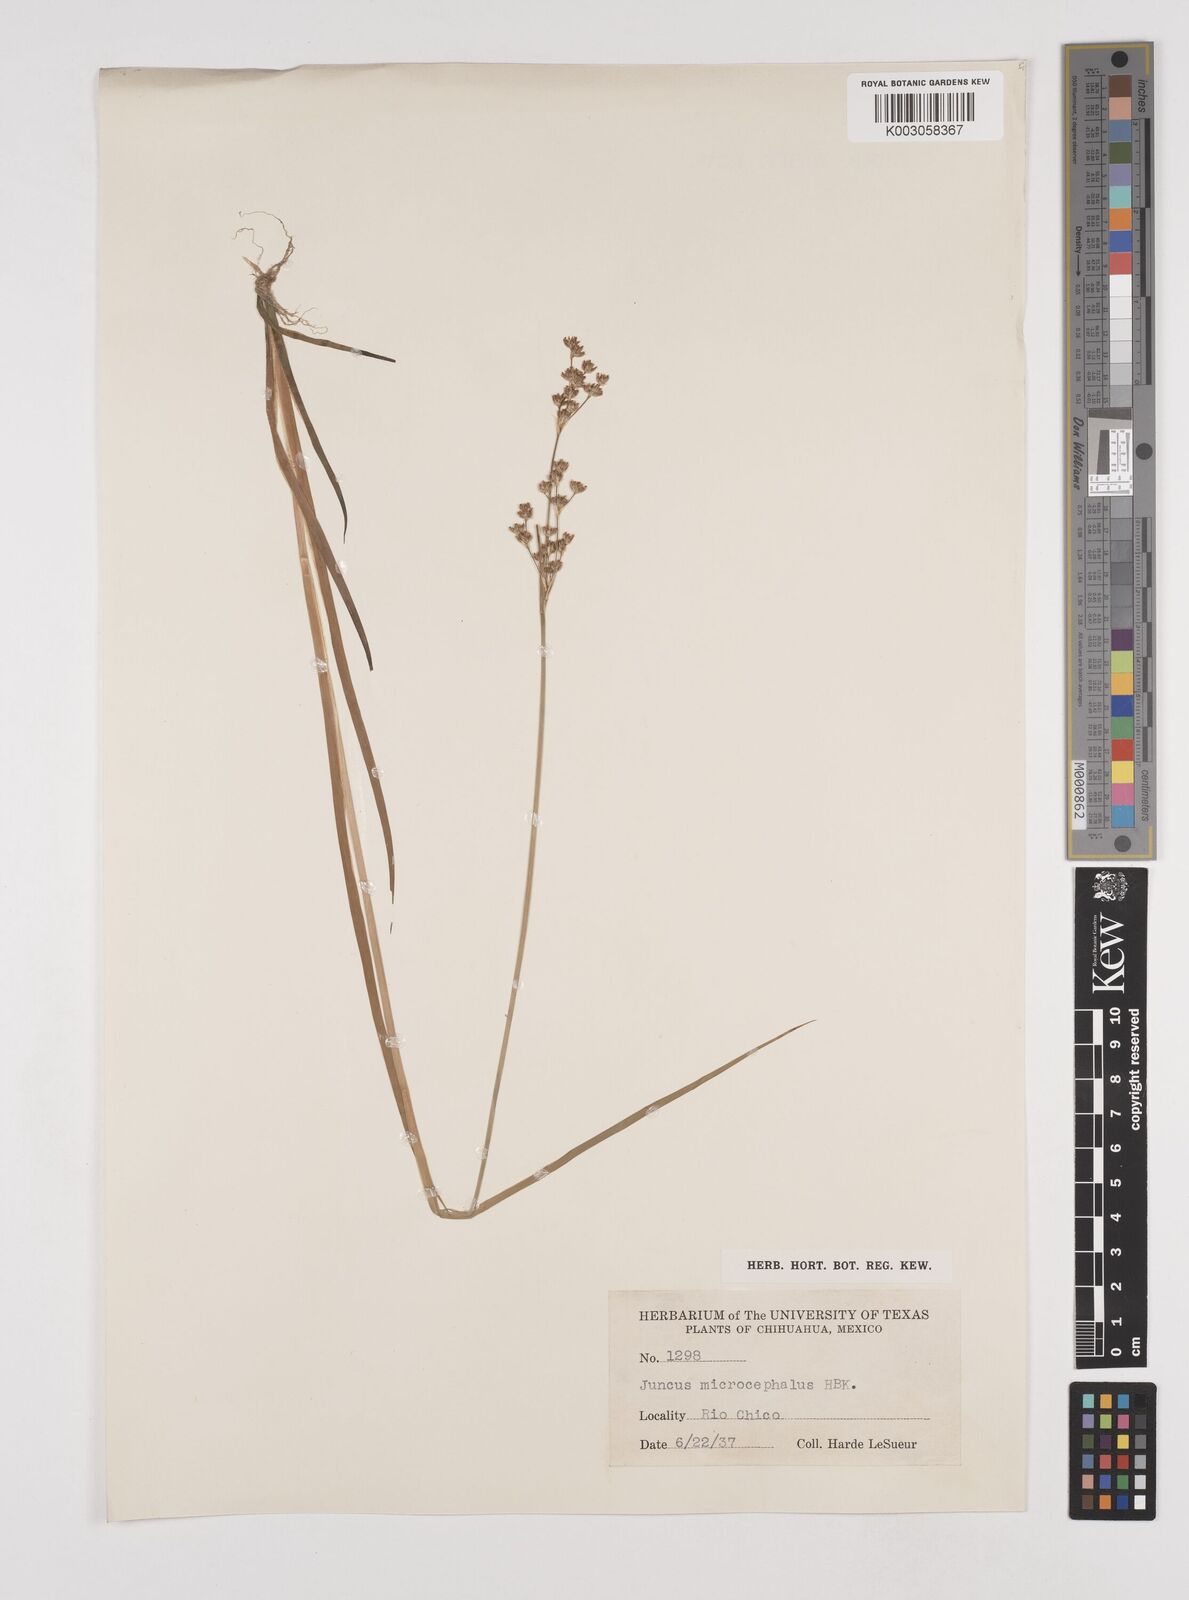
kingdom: Plantae
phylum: Tracheophyta
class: Liliopsida
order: Poales
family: Juncaceae
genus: Juncus
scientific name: Juncus microcephalus
